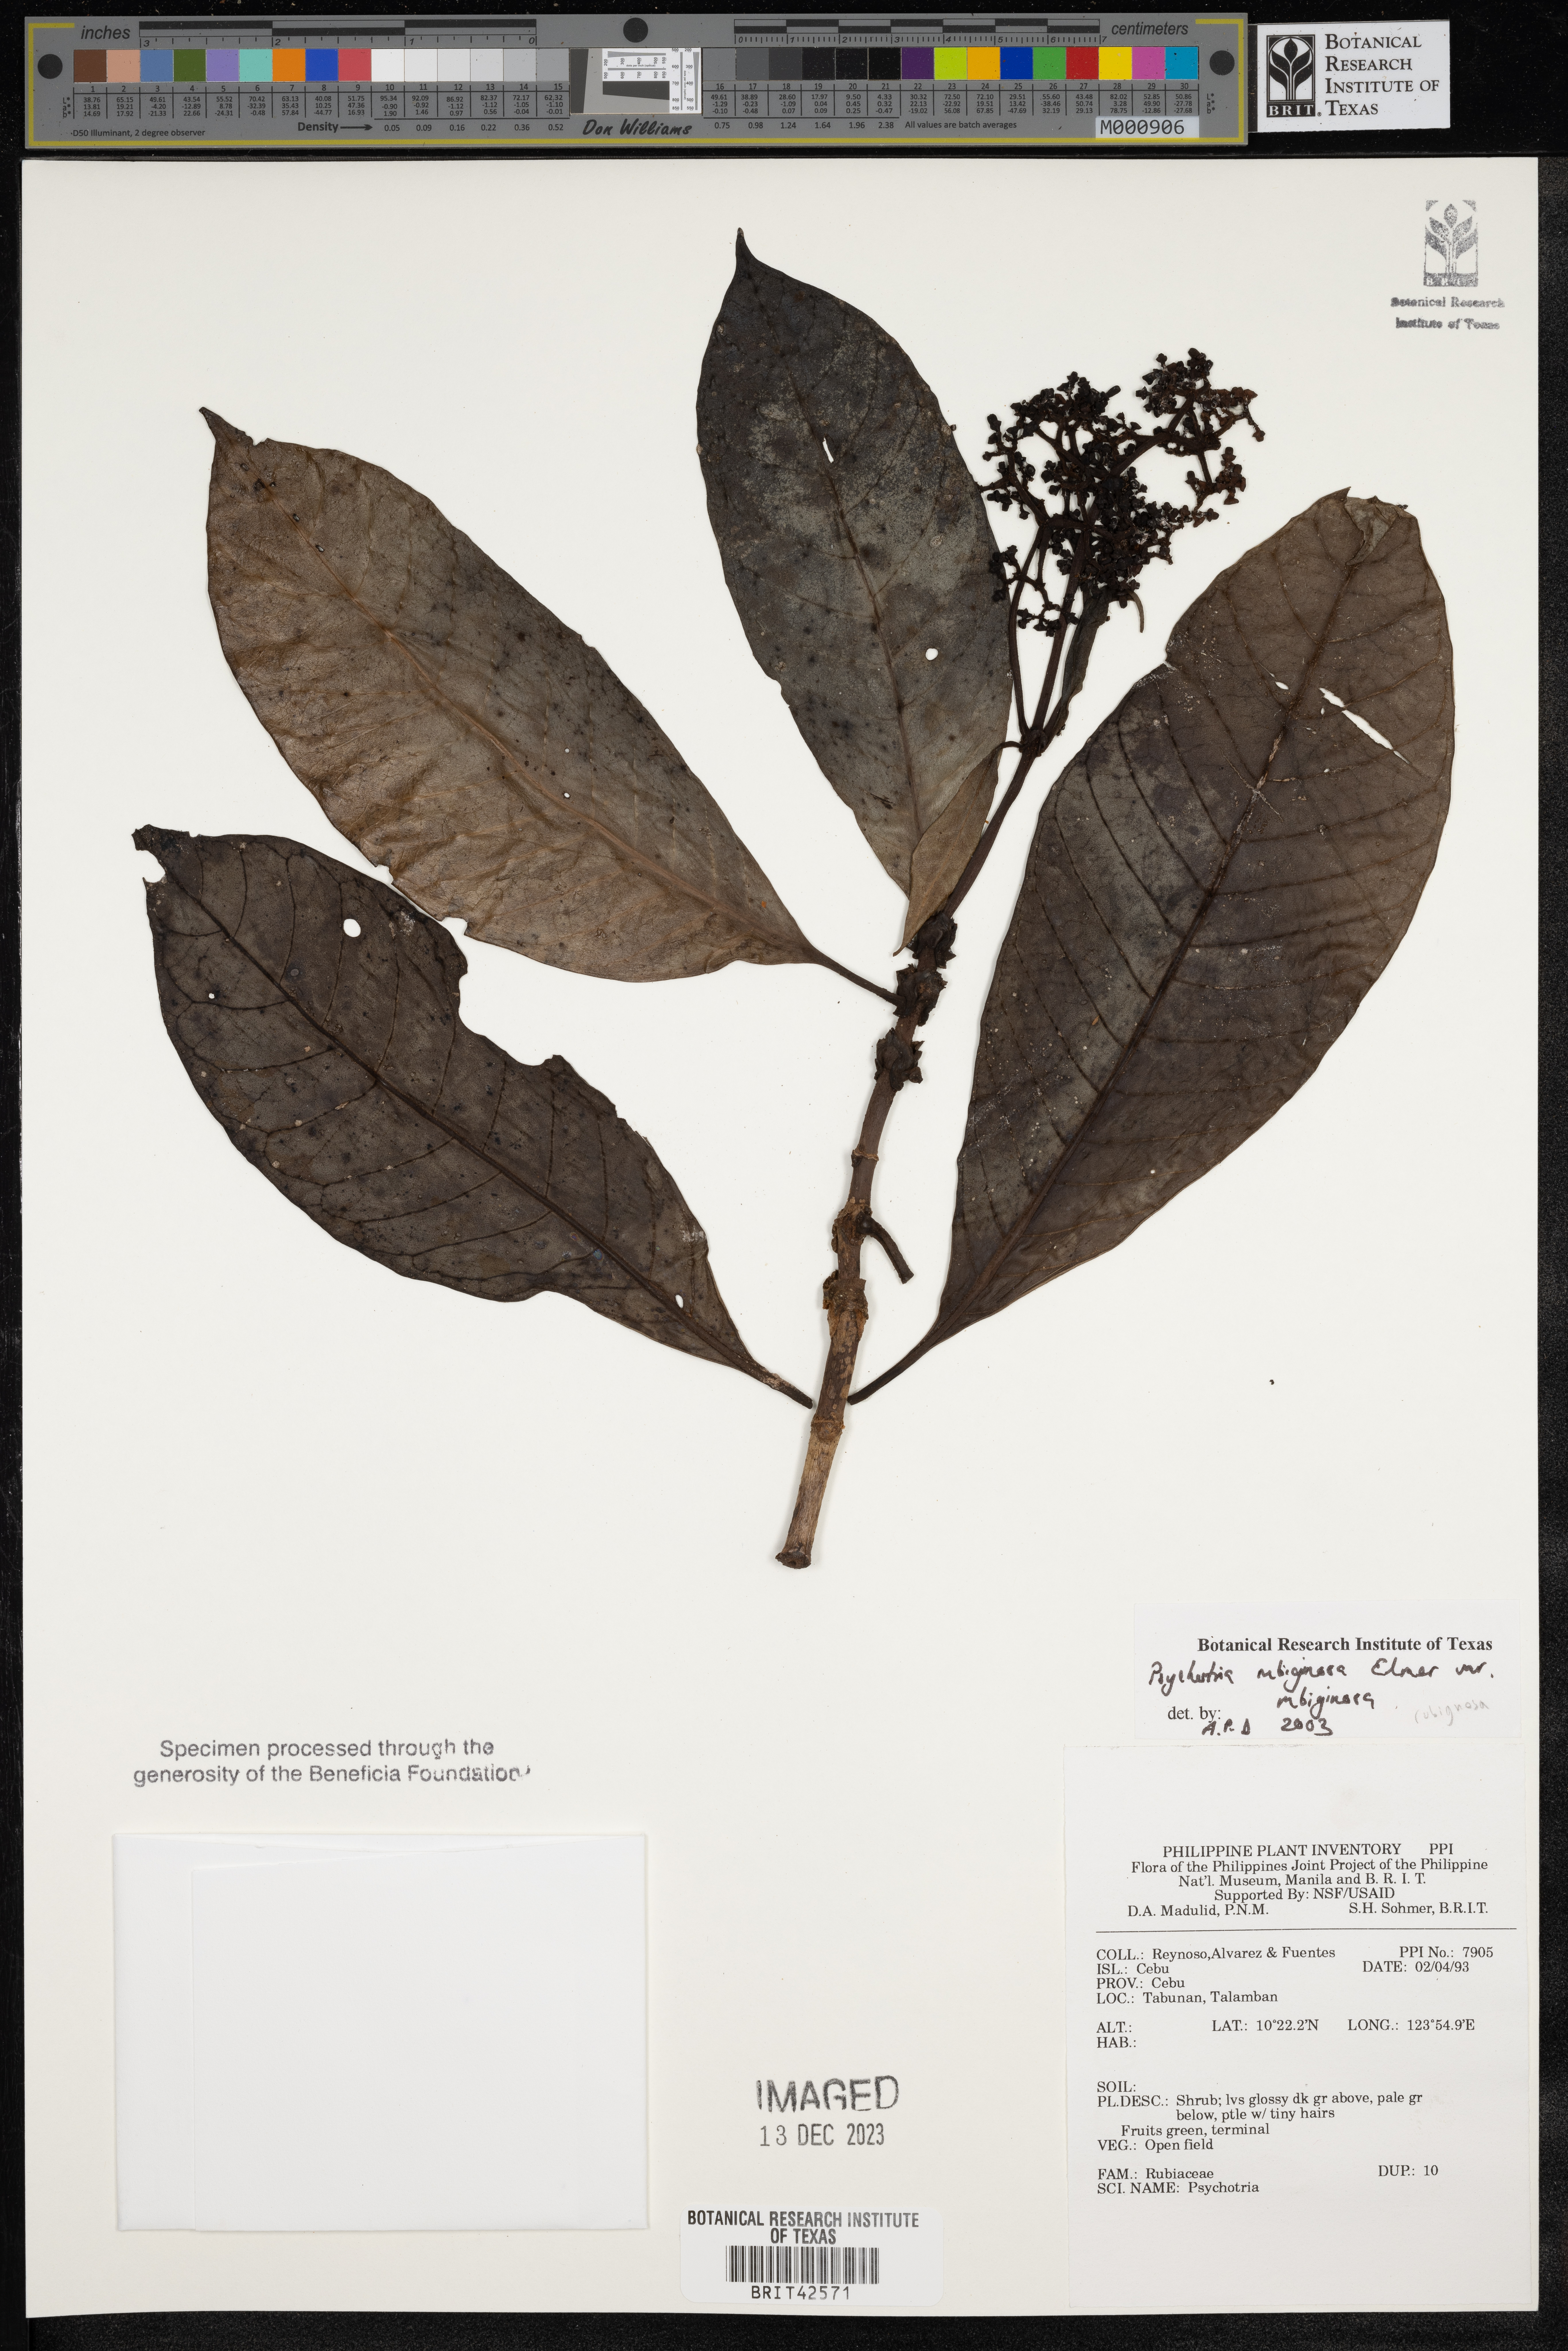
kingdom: Plantae
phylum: Tracheophyta
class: Magnoliopsida
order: Gentianales
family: Rubiaceae
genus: Psychotria
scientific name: Psychotria rubiginosa
